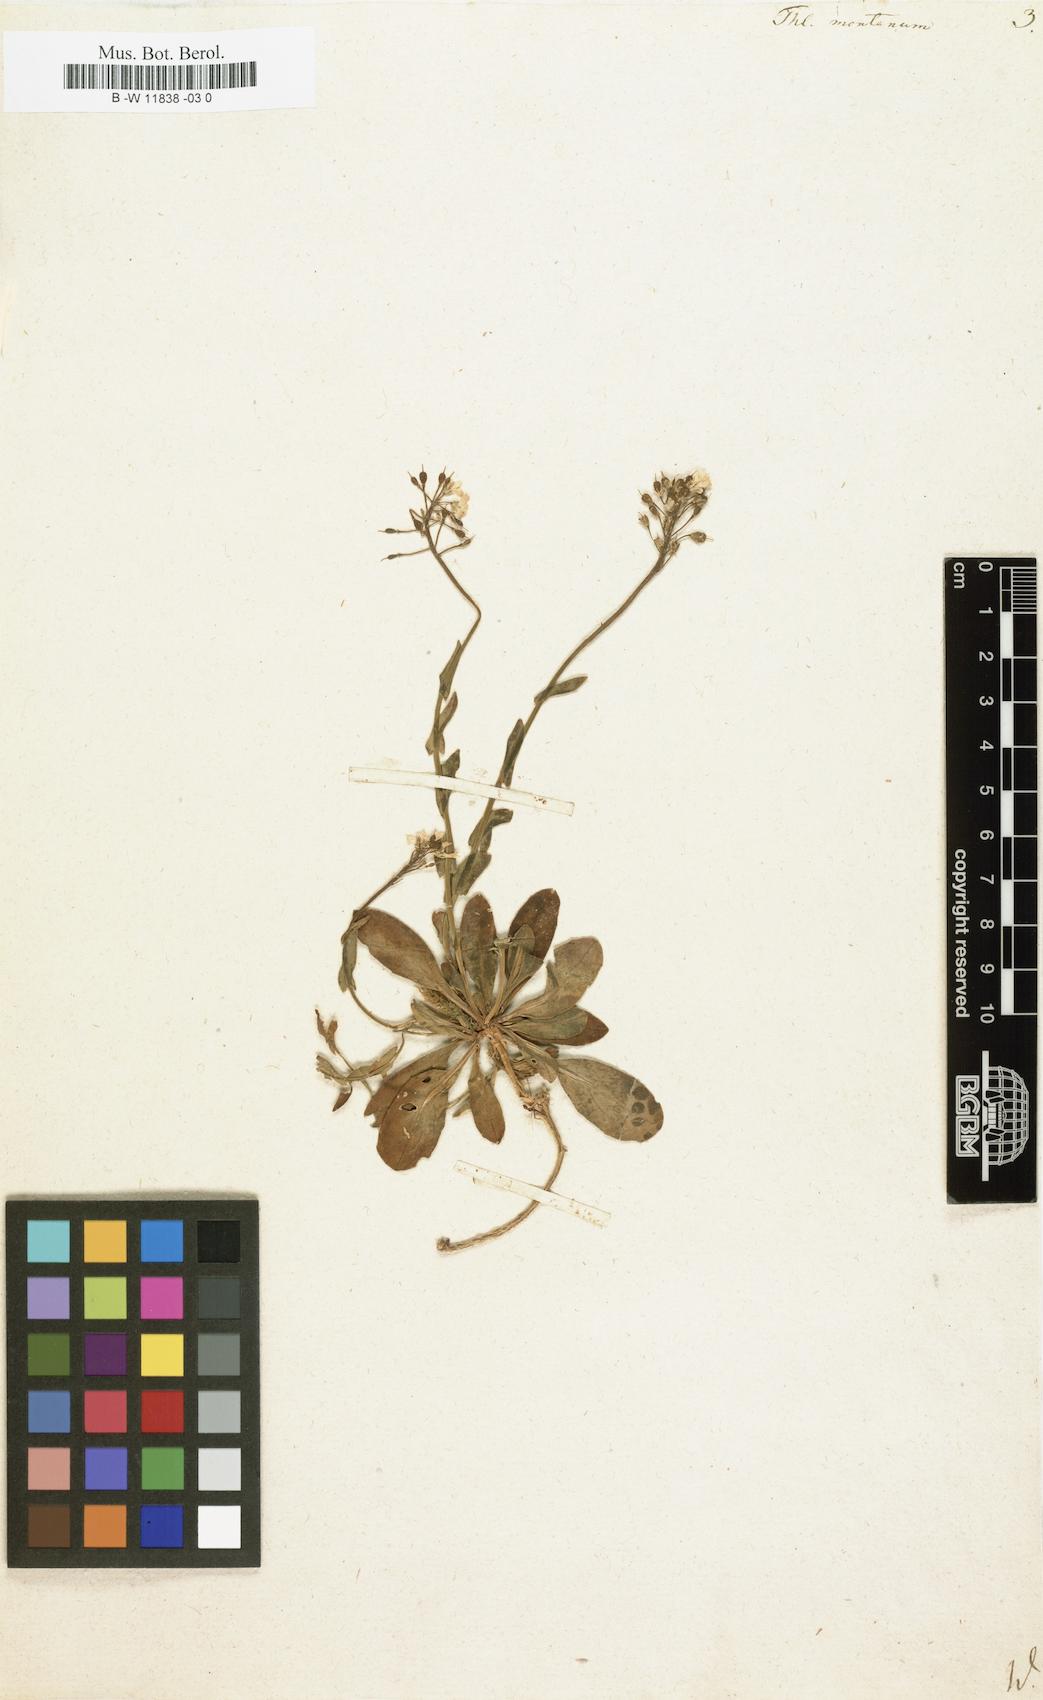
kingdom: Plantae
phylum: Tracheophyta
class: Magnoliopsida
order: Brassicales
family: Brassicaceae
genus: Thlaspi
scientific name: Thlaspi montanum
